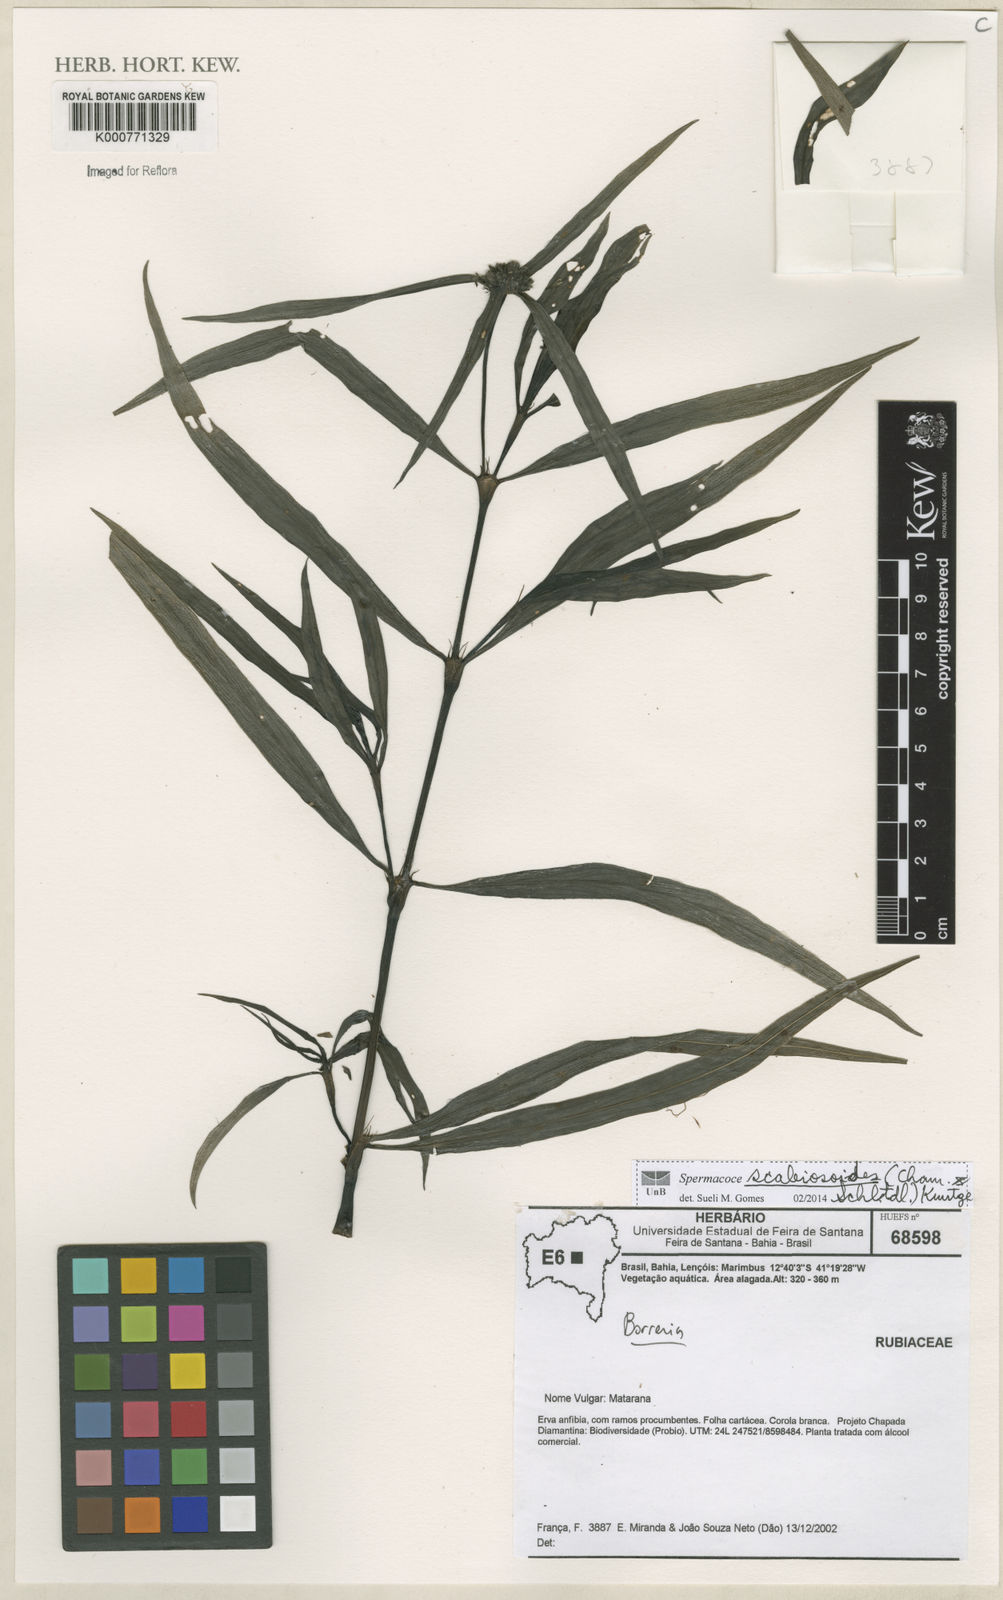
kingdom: Plantae
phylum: Tracheophyta
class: Magnoliopsida
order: Gentianales
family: Rubiaceae
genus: Spermacoce
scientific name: Spermacoce
